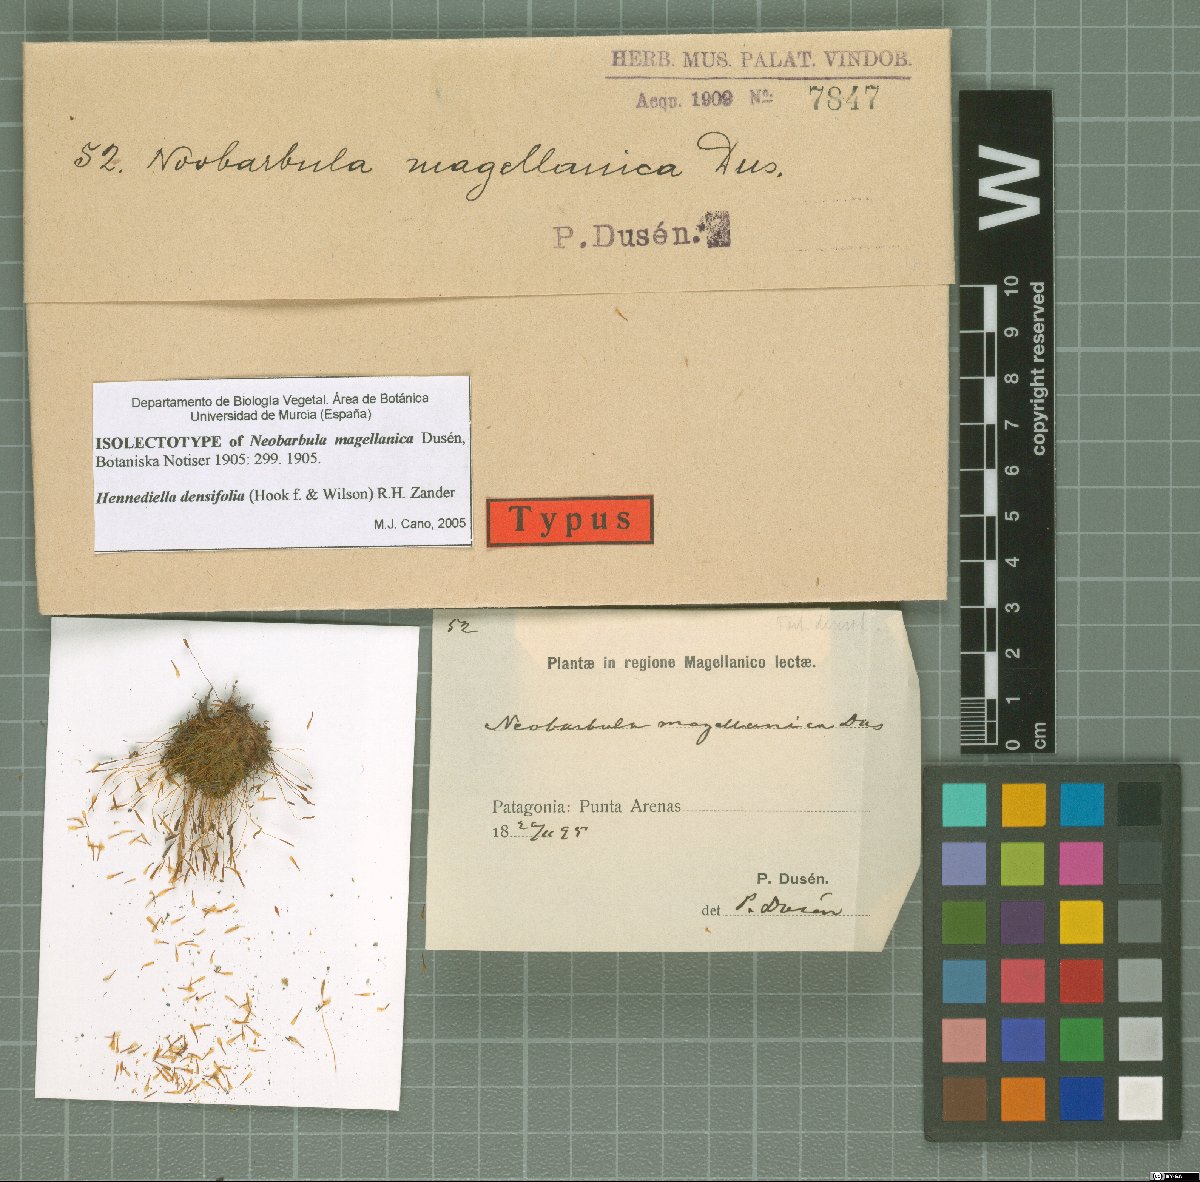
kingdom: Plantae
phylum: Bryophyta
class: Bryopsida
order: Pottiales
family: Pottiaceae
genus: Hennediella
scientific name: Hennediella densifolia
